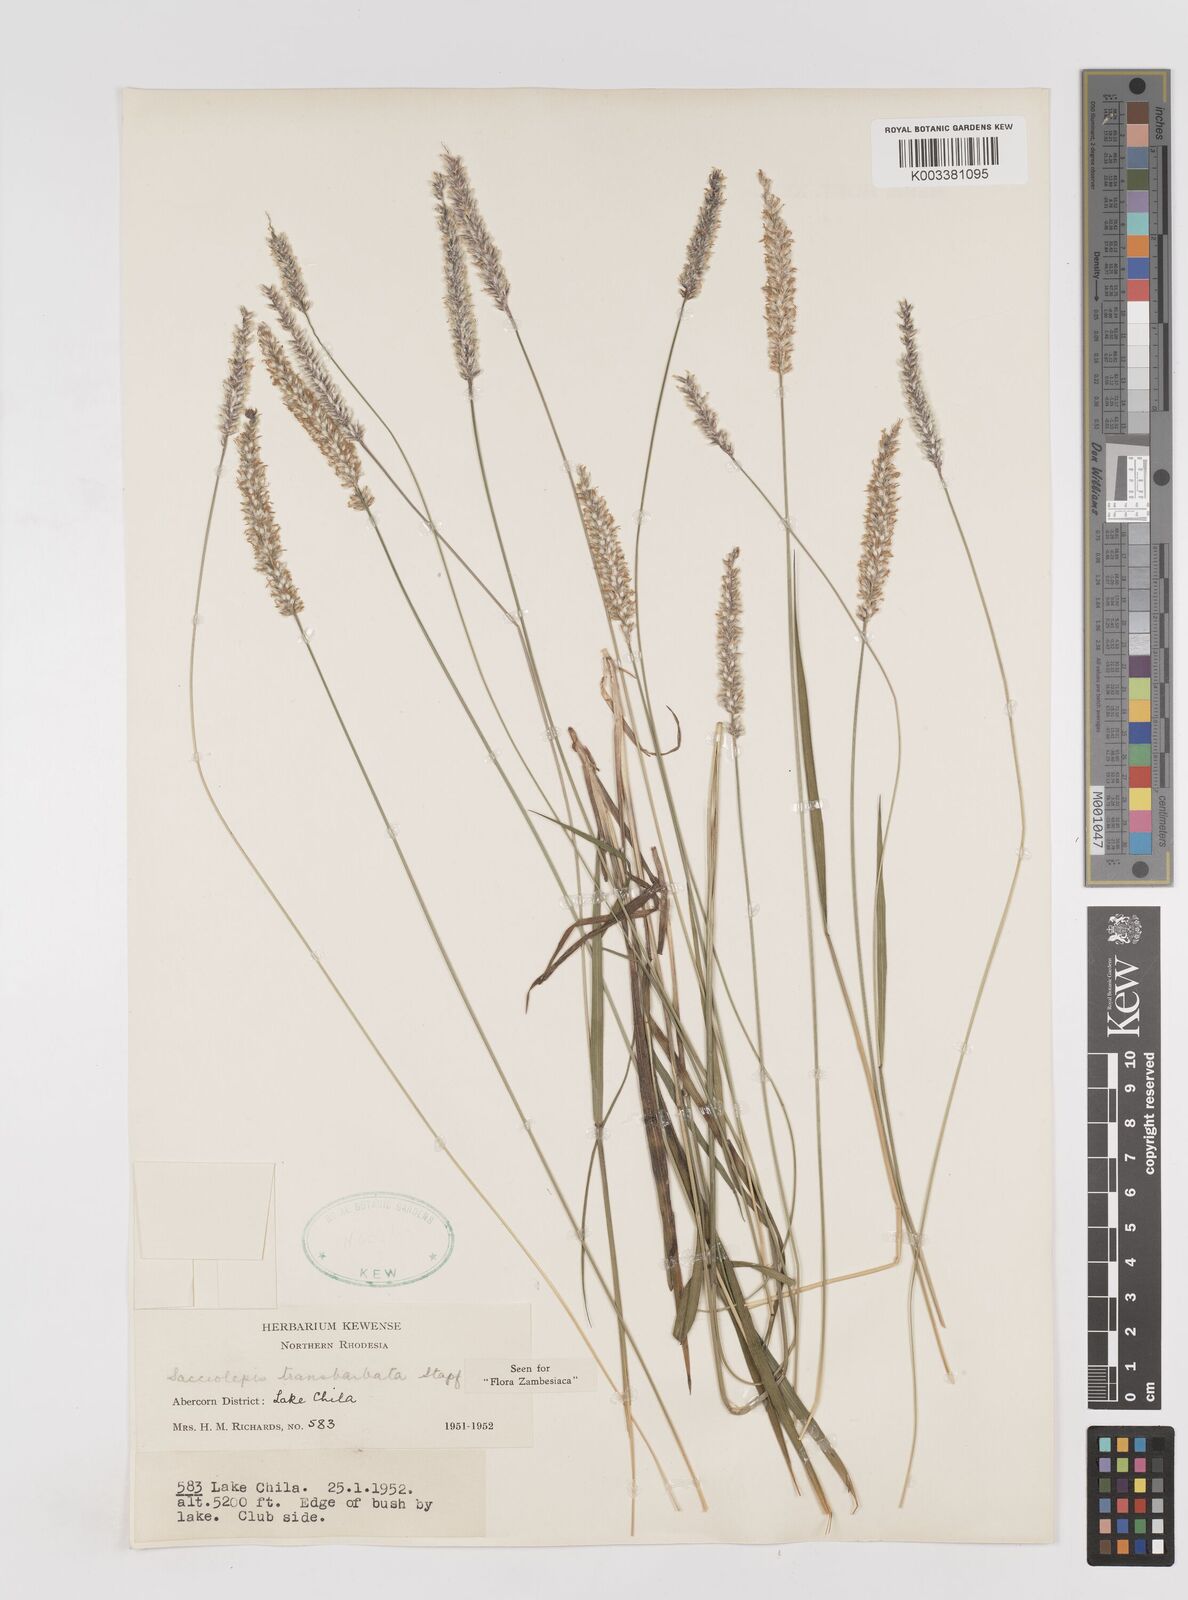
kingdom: Plantae
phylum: Tracheophyta
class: Liliopsida
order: Poales
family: Poaceae
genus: Sacciolepis
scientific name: Sacciolepis transbarbata
